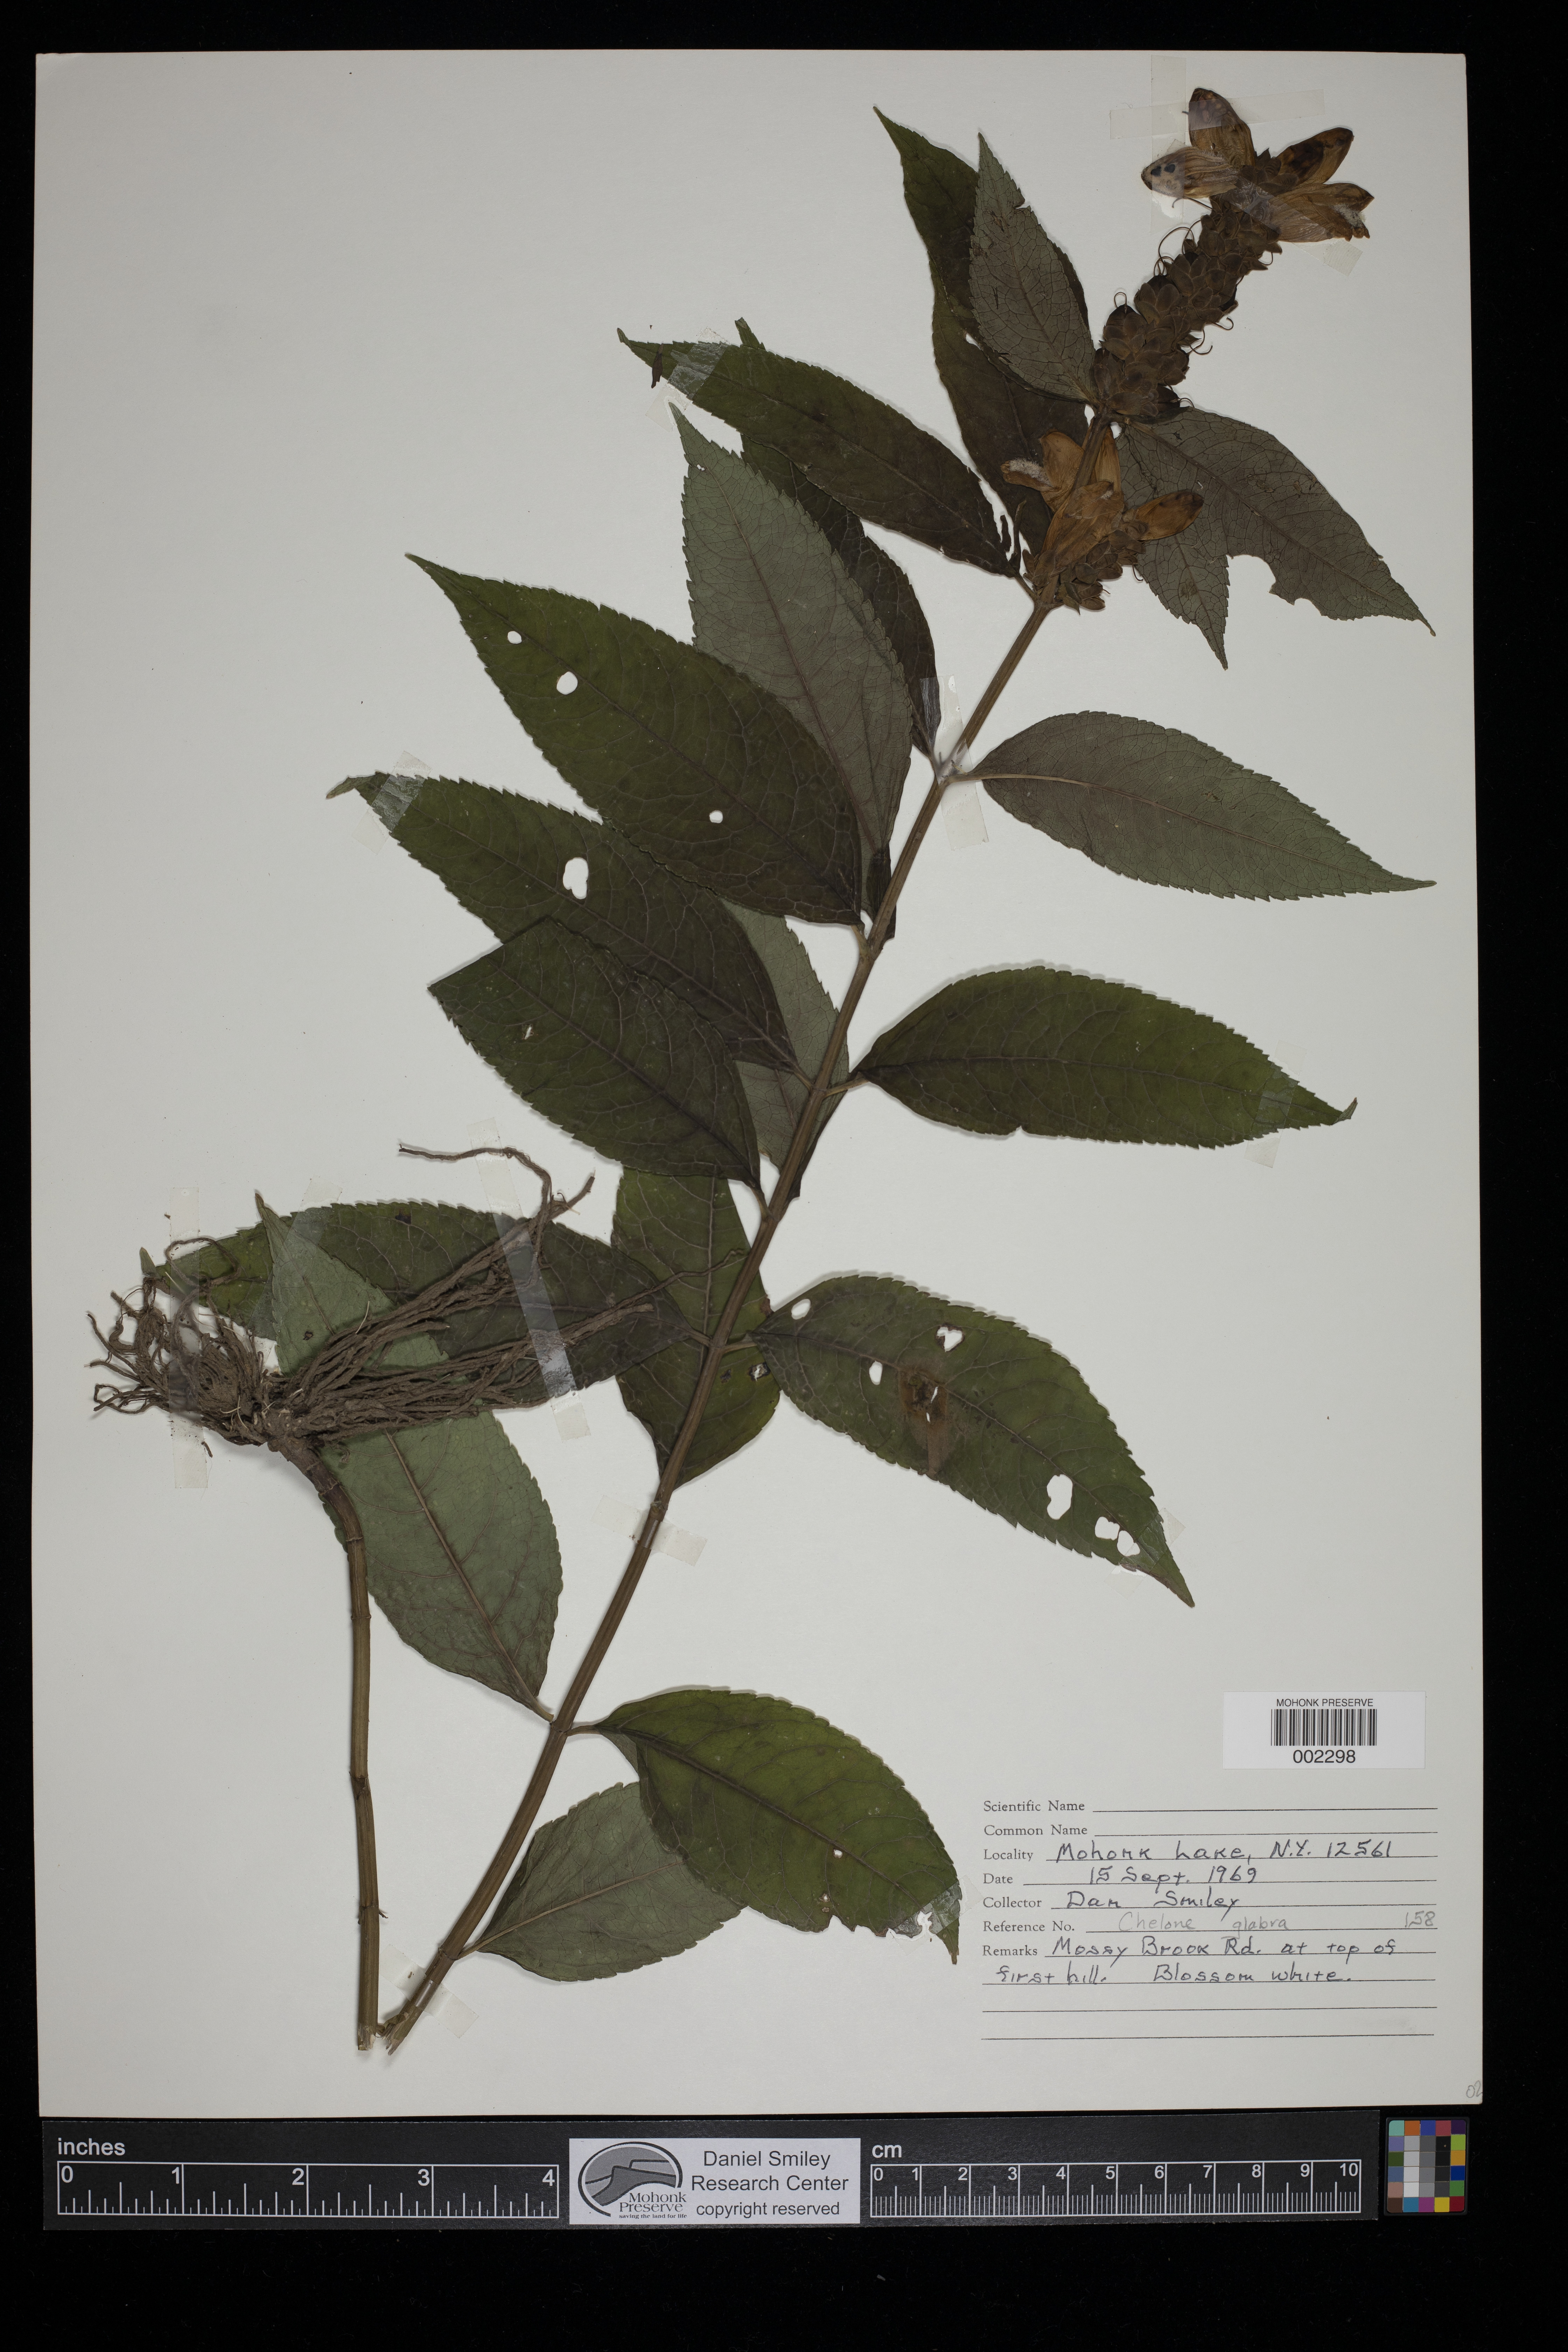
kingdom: Plantae
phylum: Tracheophyta
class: Magnoliopsida
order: Lamiales
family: Plantaginaceae
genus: Chelone
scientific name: Chelone glabra
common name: Snakehead
